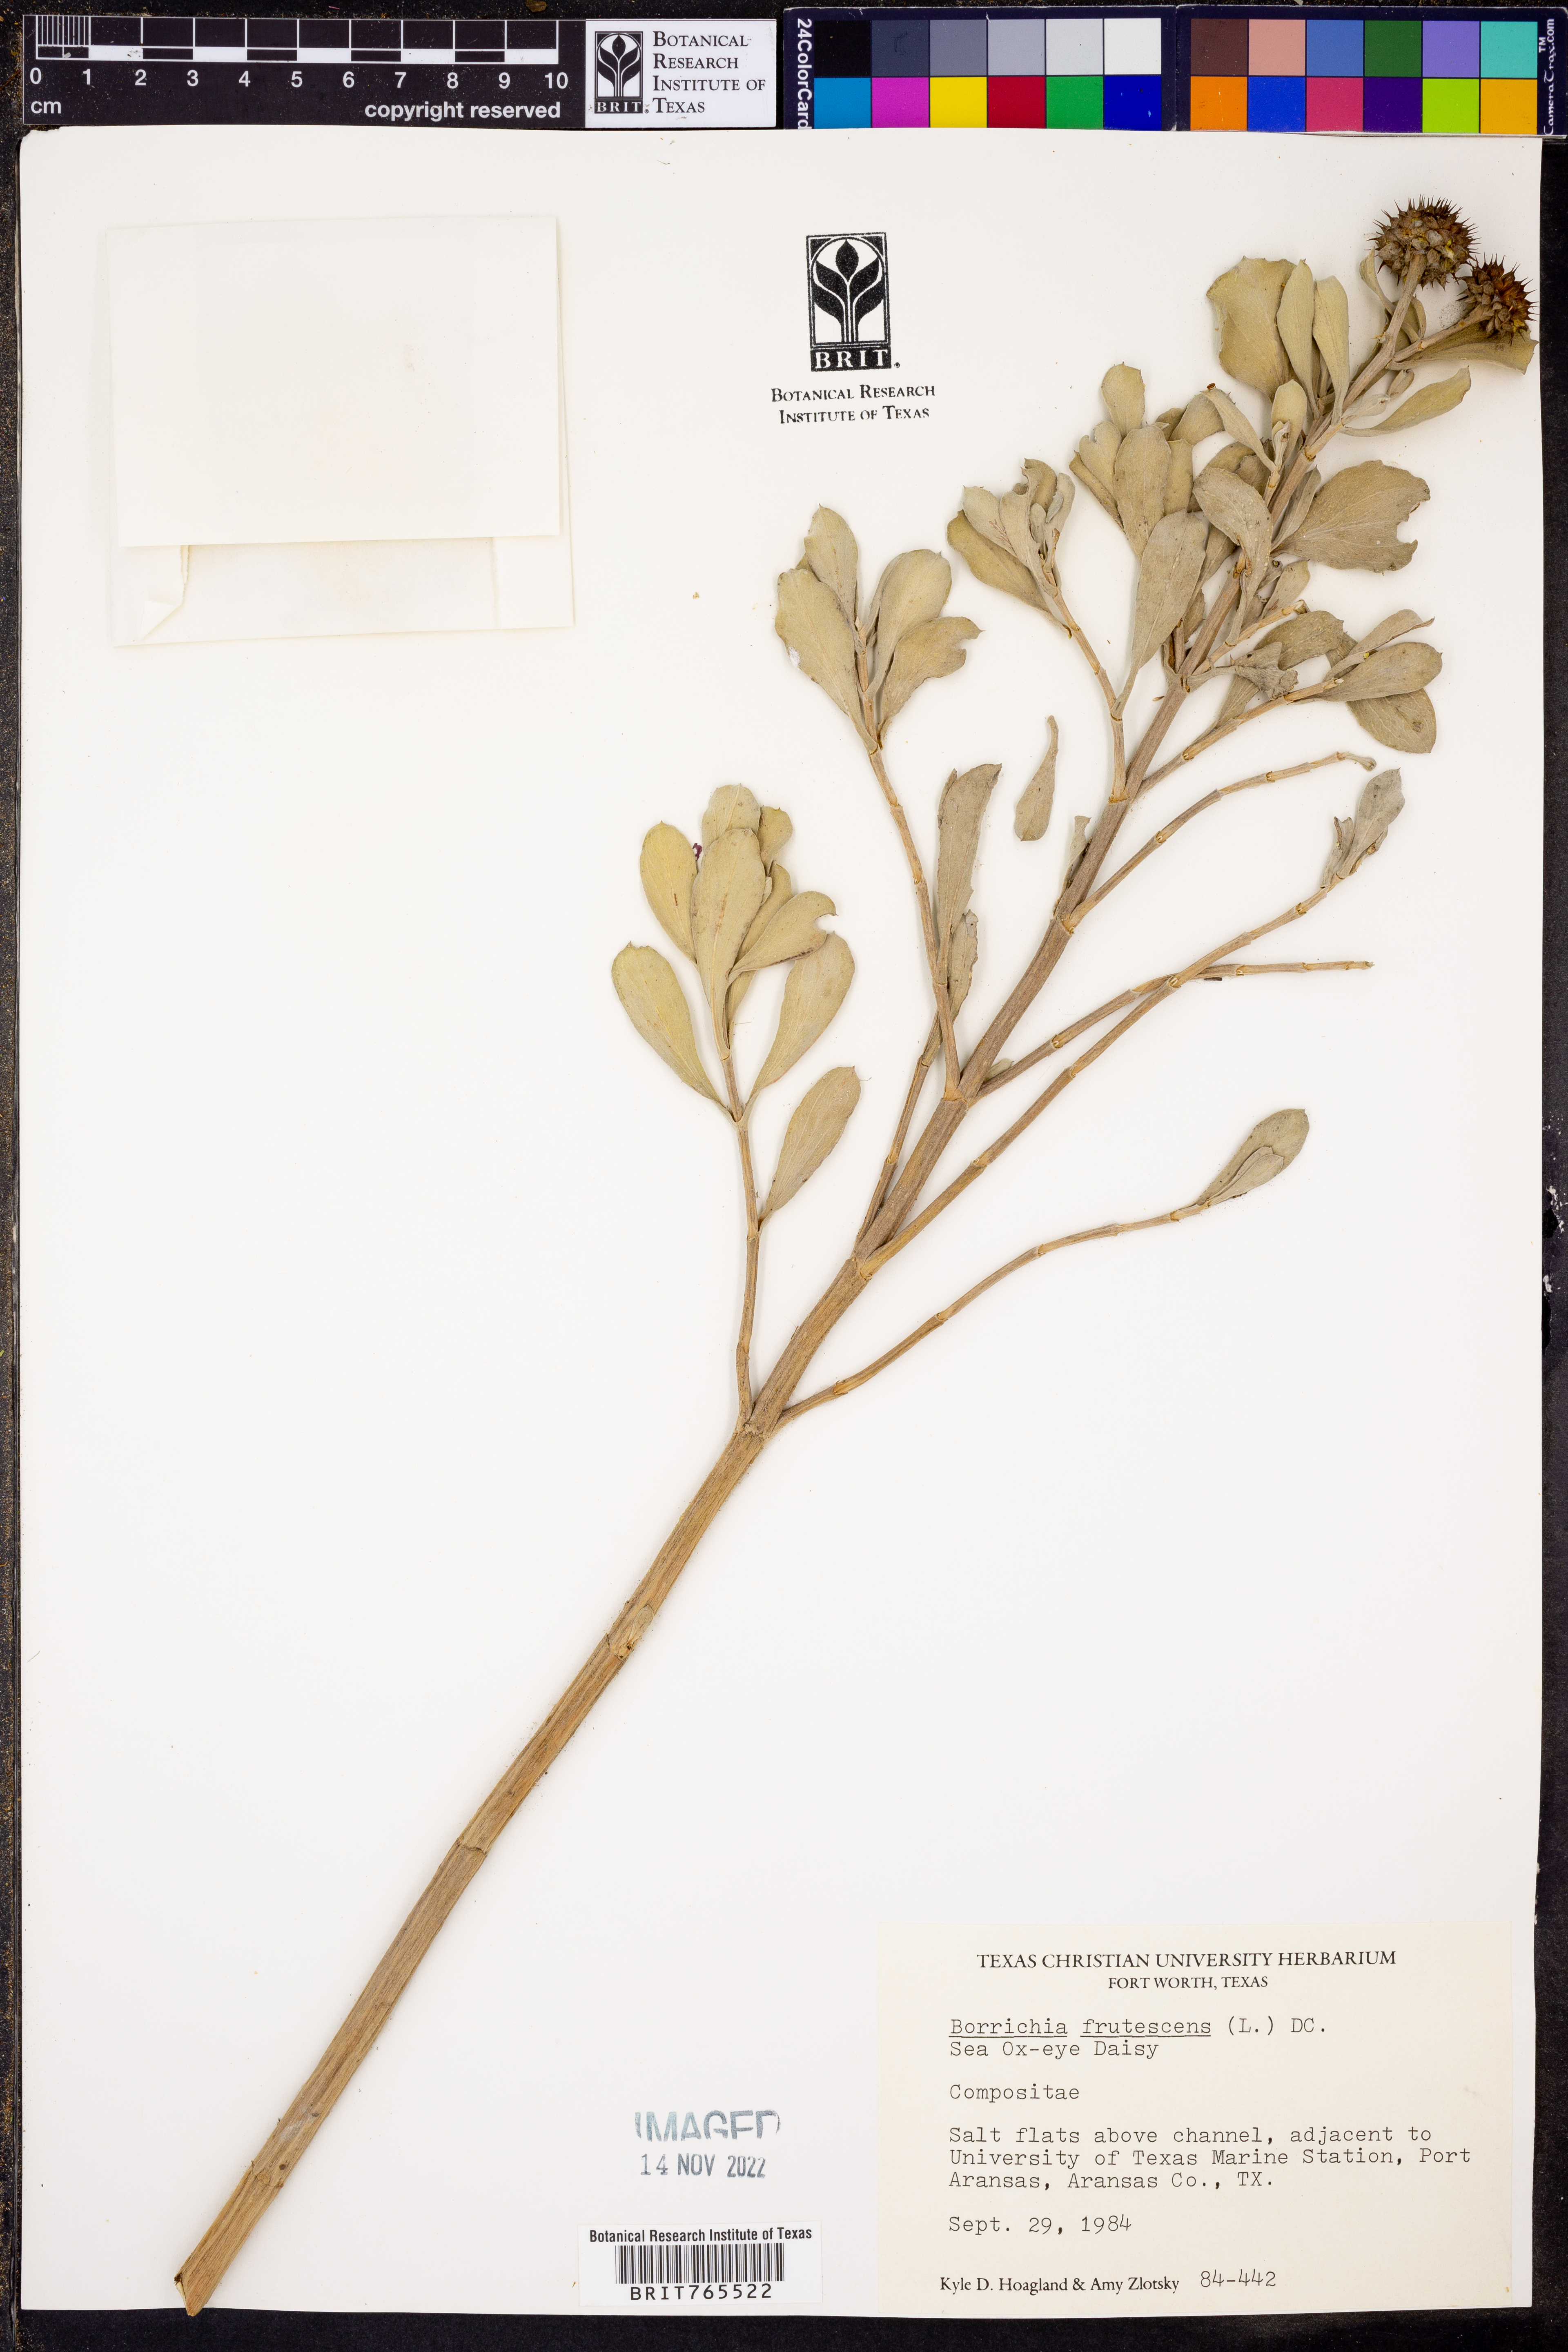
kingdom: Plantae
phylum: Tracheophyta
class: Magnoliopsida
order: Asterales
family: Asteraceae
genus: Borrichia
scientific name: Borrichia frutescens
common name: Sea oxeye
